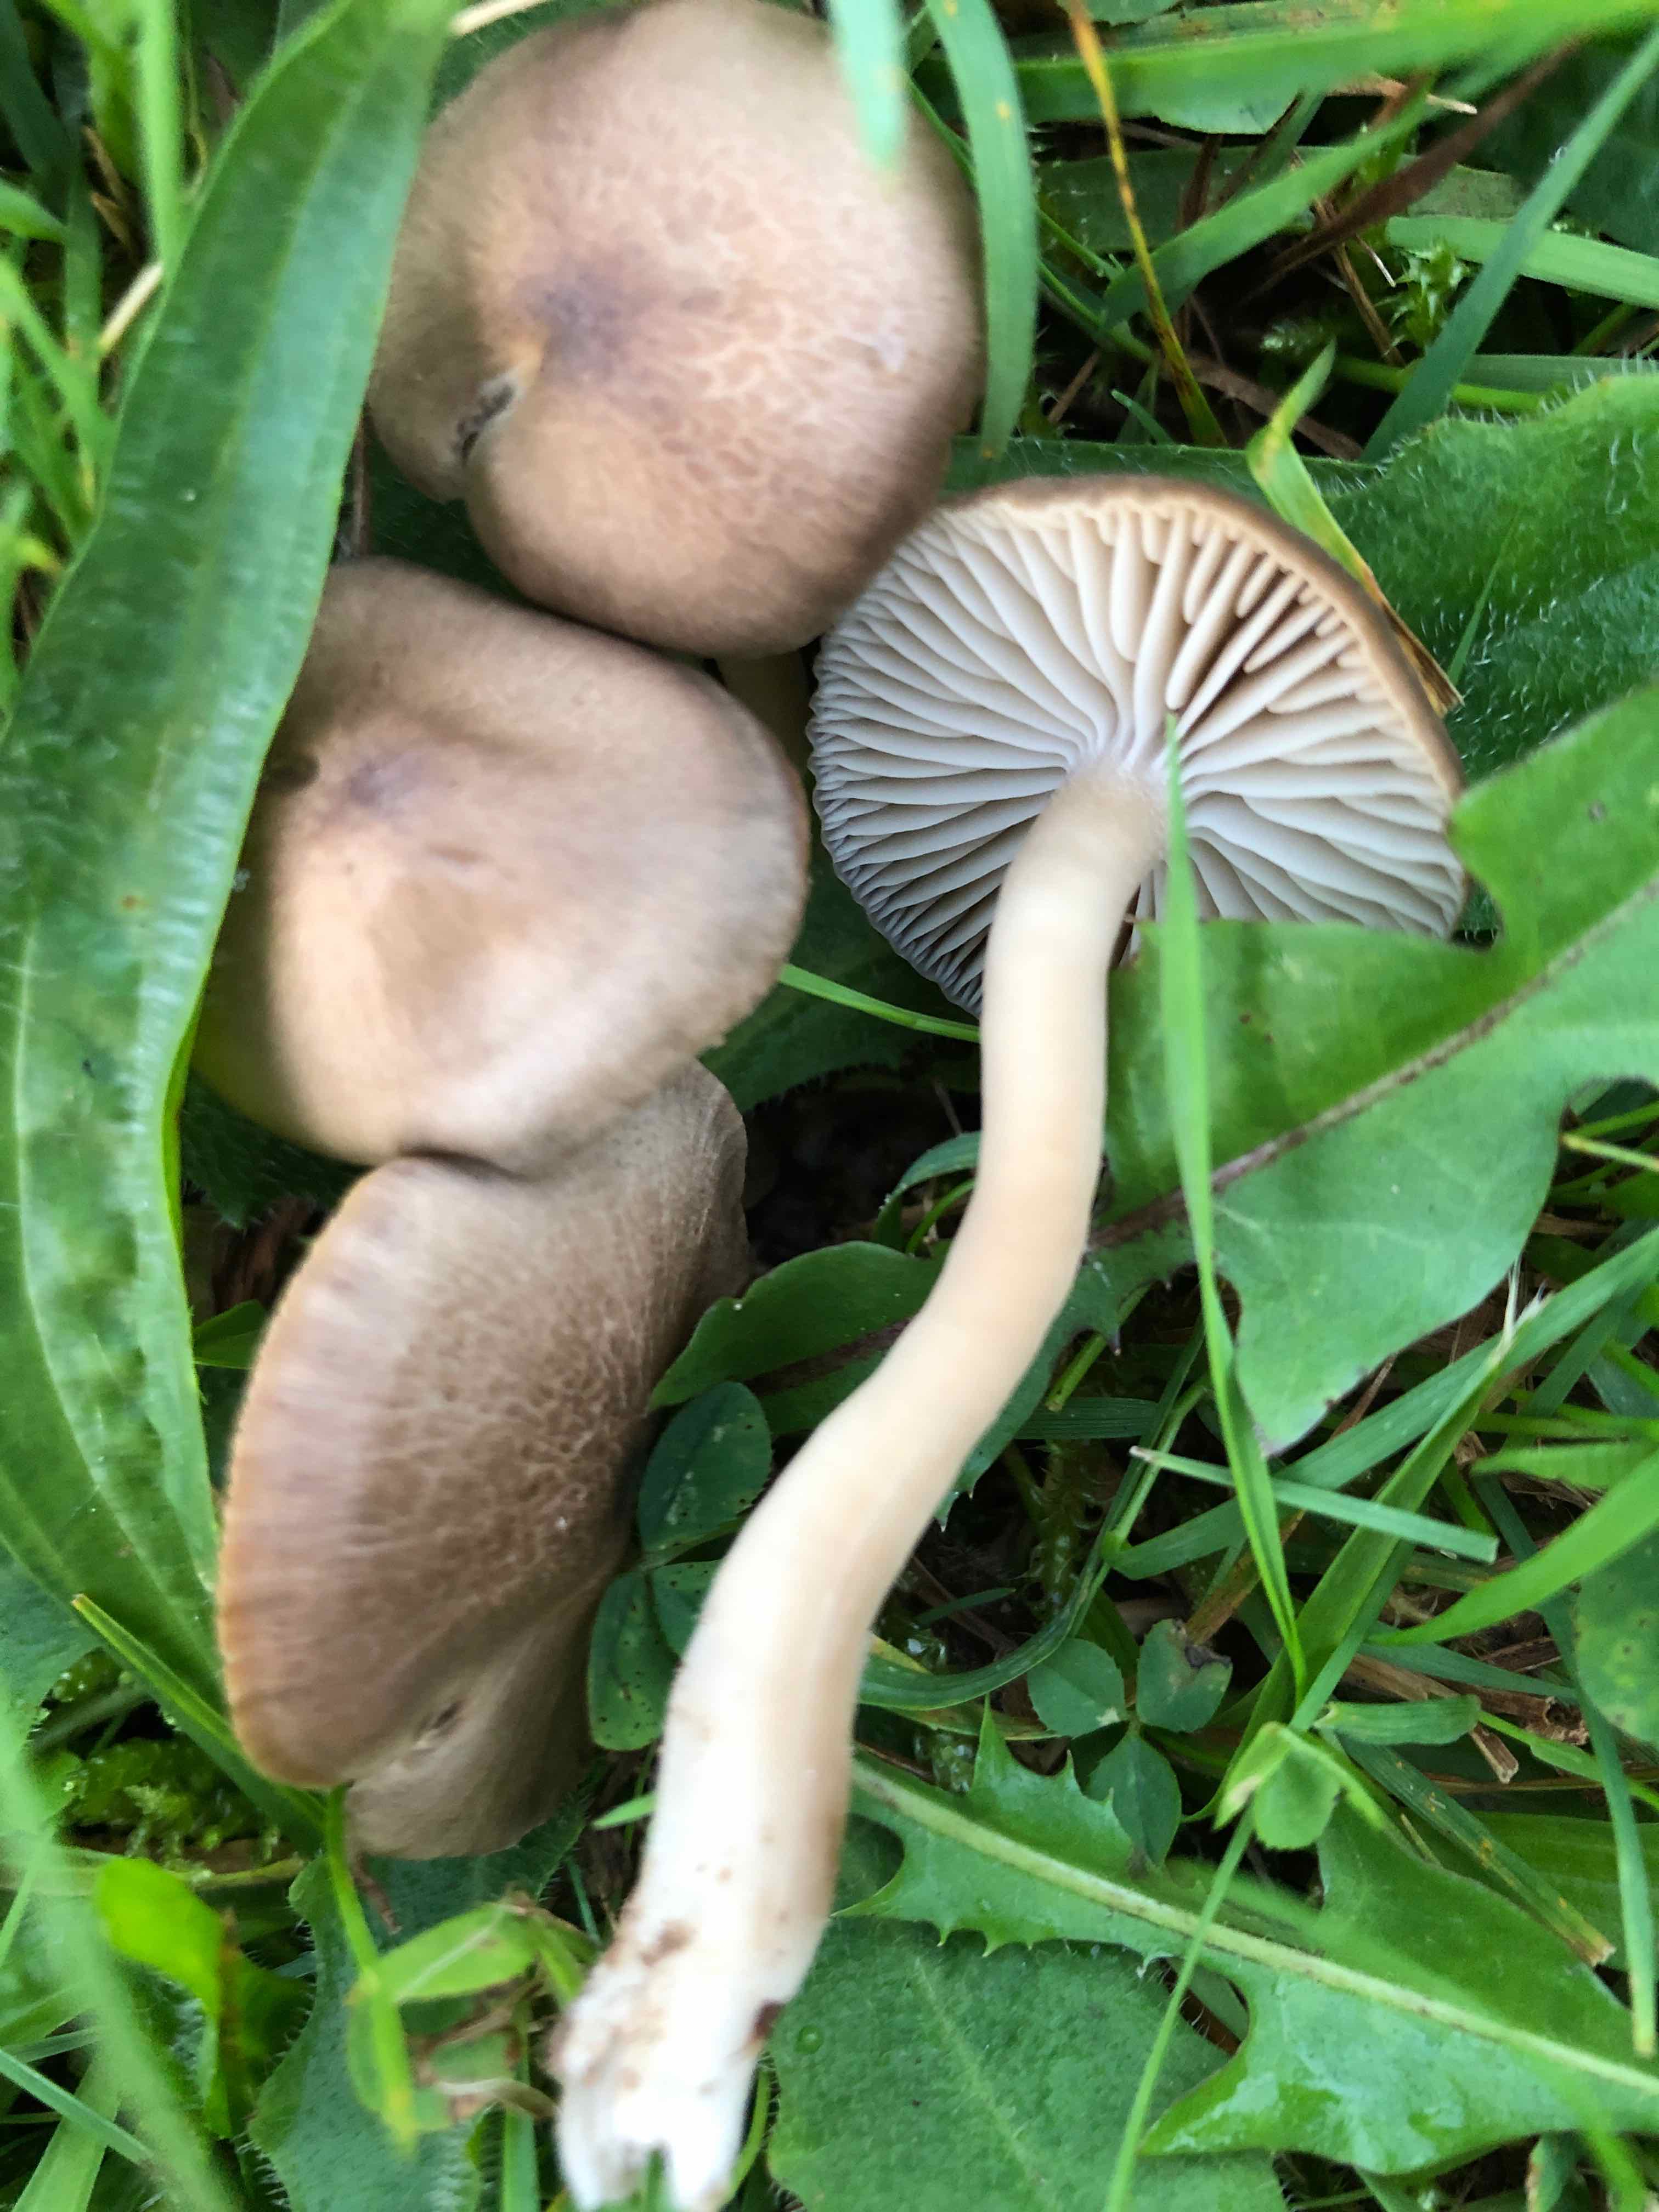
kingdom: Fungi
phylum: Basidiomycota
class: Agaricomycetes
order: Agaricales
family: Hygrophoraceae
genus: Neohygrocybe
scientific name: Neohygrocybe nitrata
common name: stinkende vokshat
